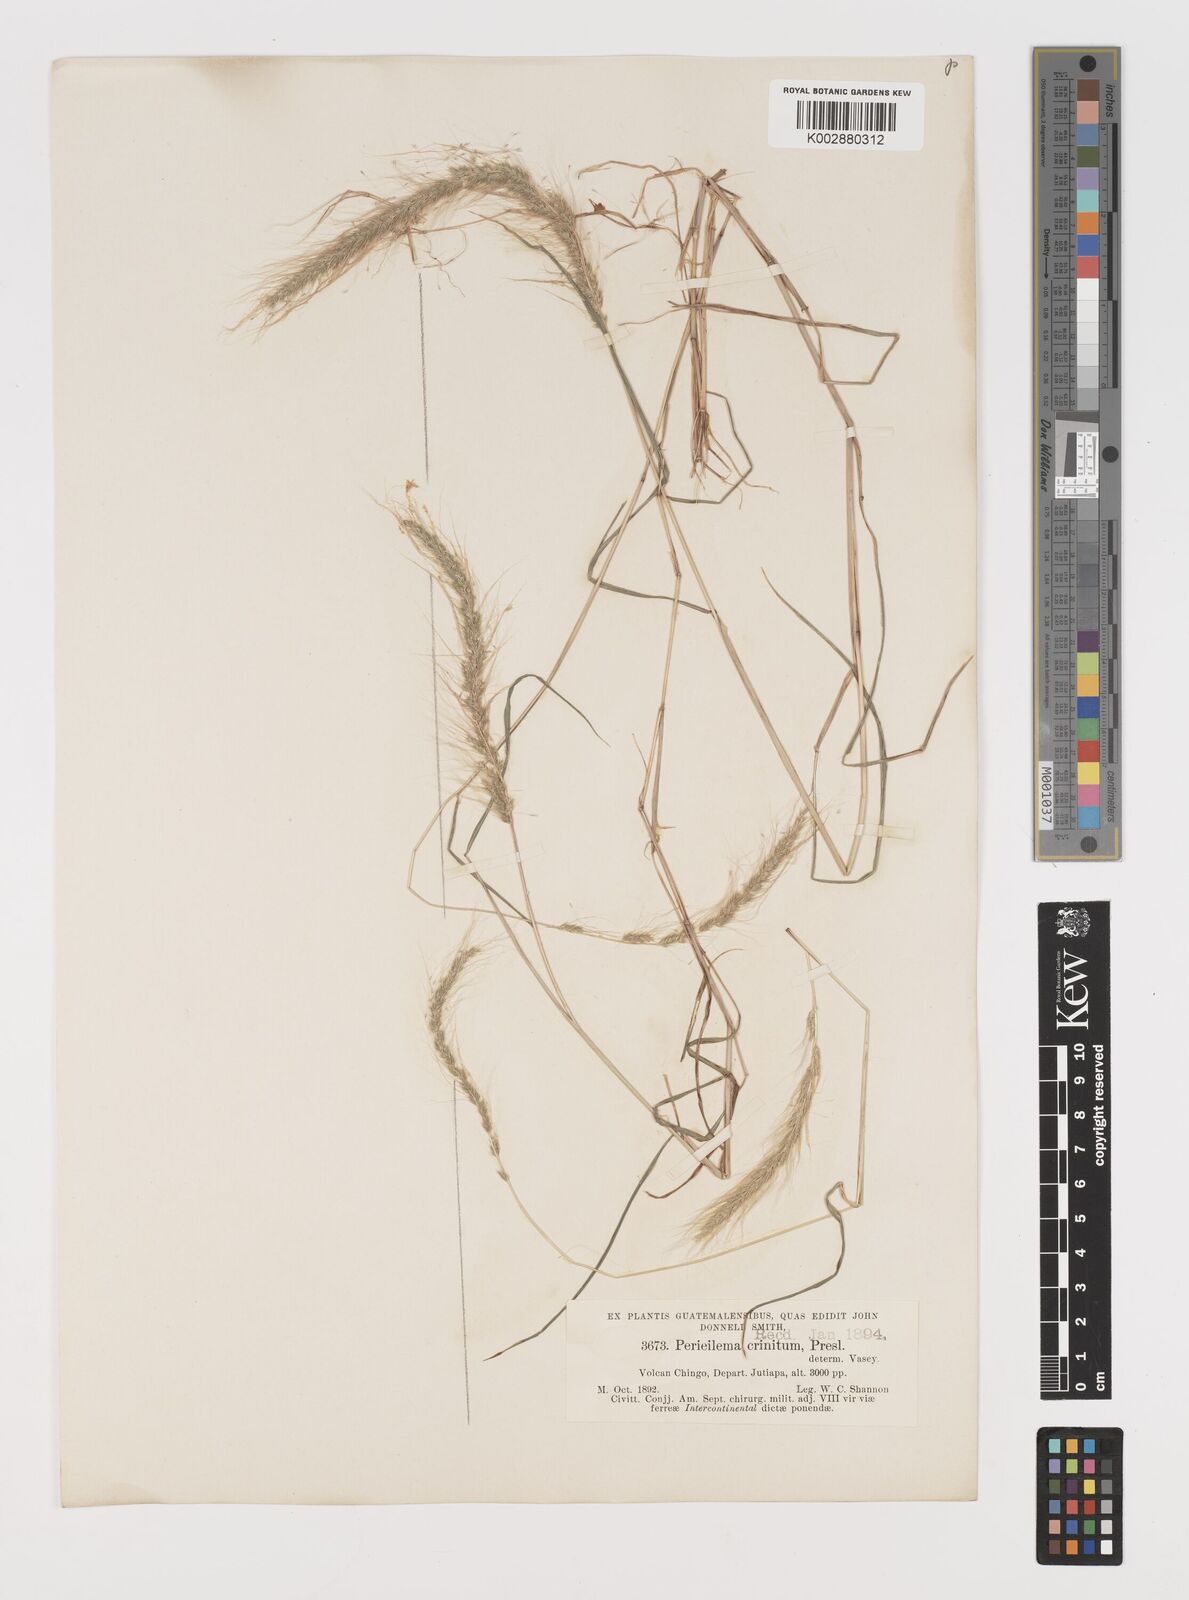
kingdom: Plantae
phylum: Tracheophyta
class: Liliopsida
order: Poales
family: Poaceae
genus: Muhlenbergia
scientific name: Muhlenbergia pereilema
